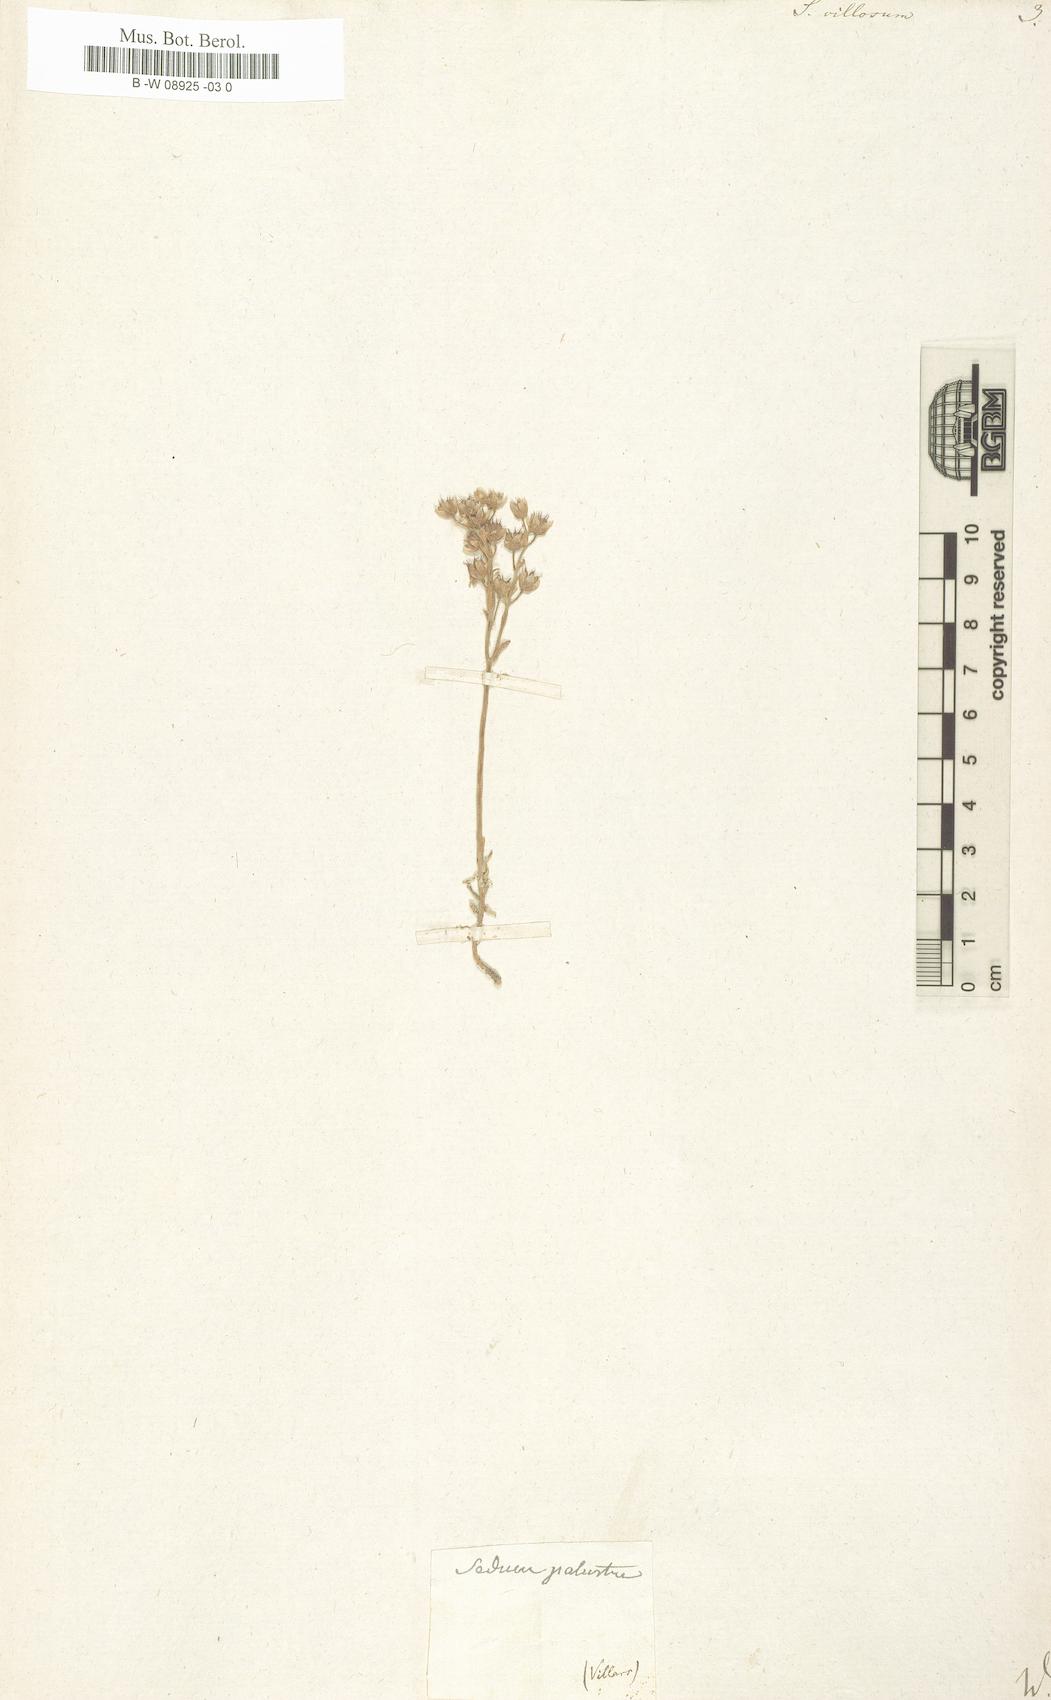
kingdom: Plantae
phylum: Tracheophyta
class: Magnoliopsida
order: Saxifragales
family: Crassulaceae
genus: Sedum
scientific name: Sedum villosum
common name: Hairy stonecrop
